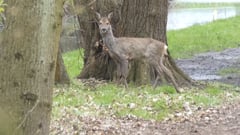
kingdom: Animalia
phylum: Chordata
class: Mammalia
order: Artiodactyla
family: Cervidae
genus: Capreolus
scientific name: Capreolus capreolus
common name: Western roe deer
